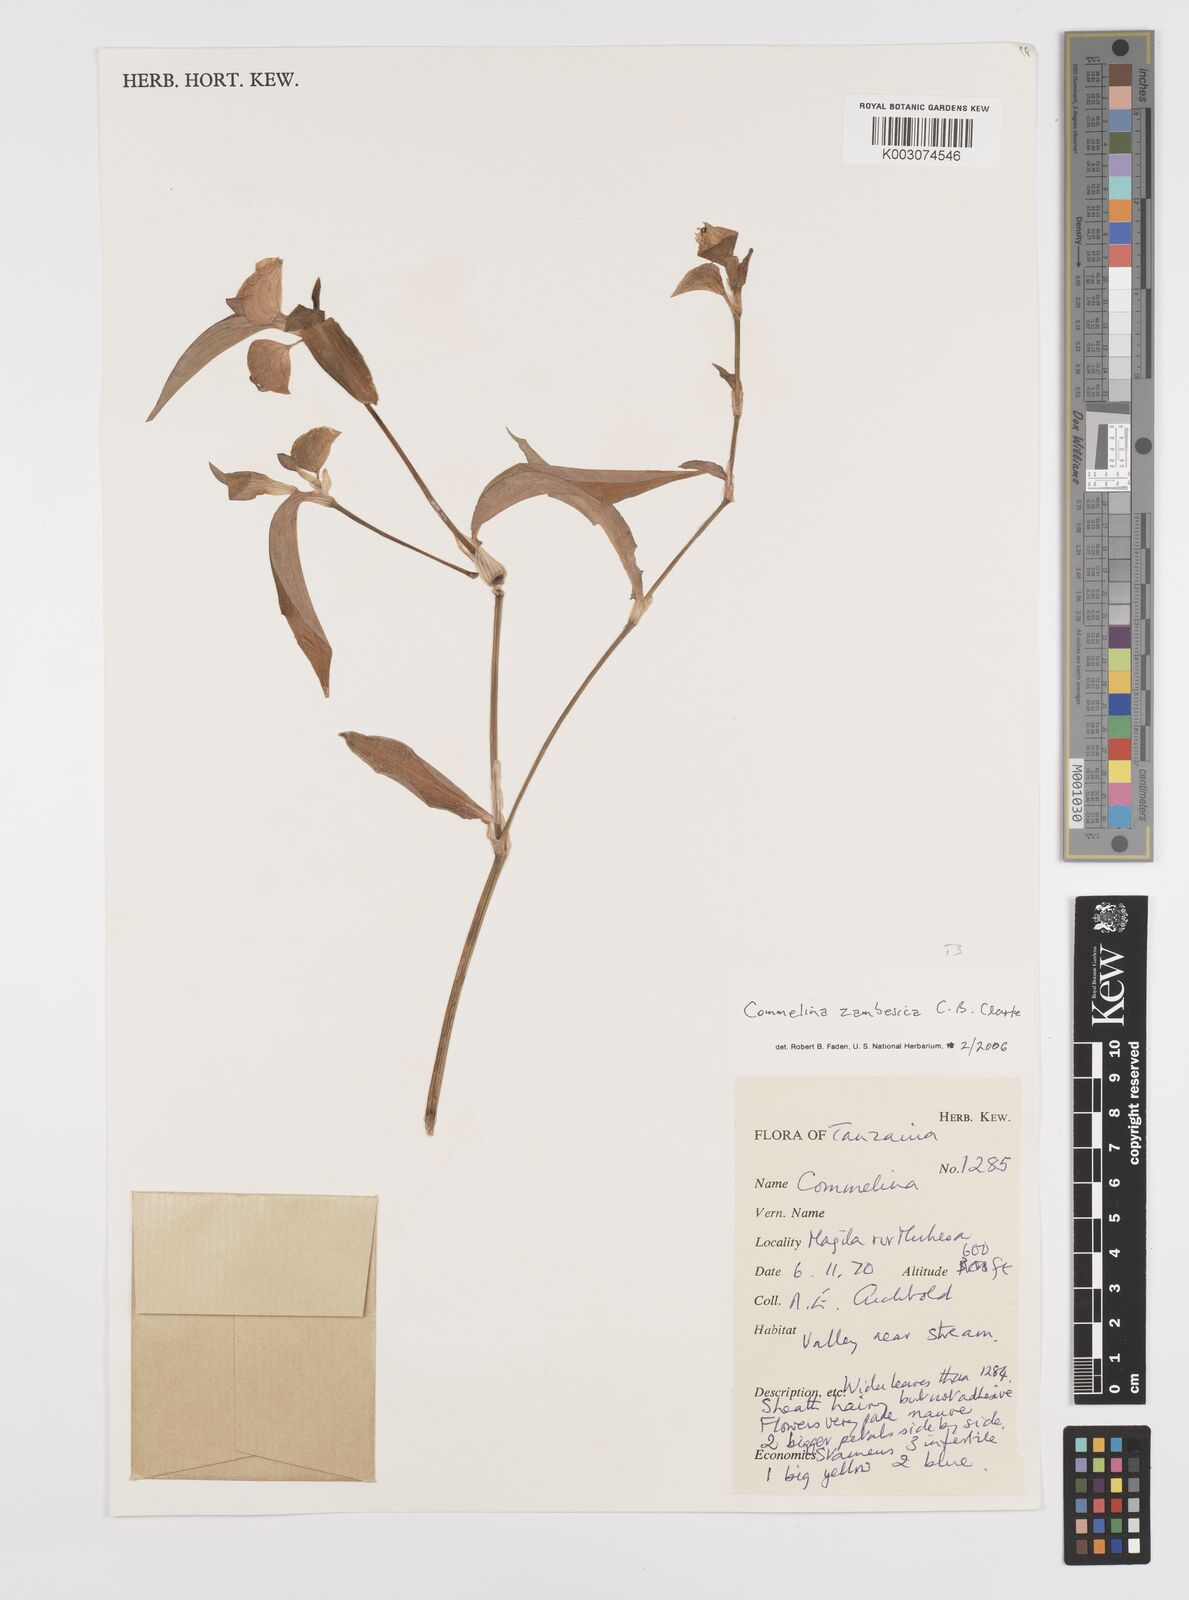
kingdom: Plantae
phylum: Tracheophyta
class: Liliopsida
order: Commelinales
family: Commelinaceae
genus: Commelina
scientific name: Commelina zambesica
